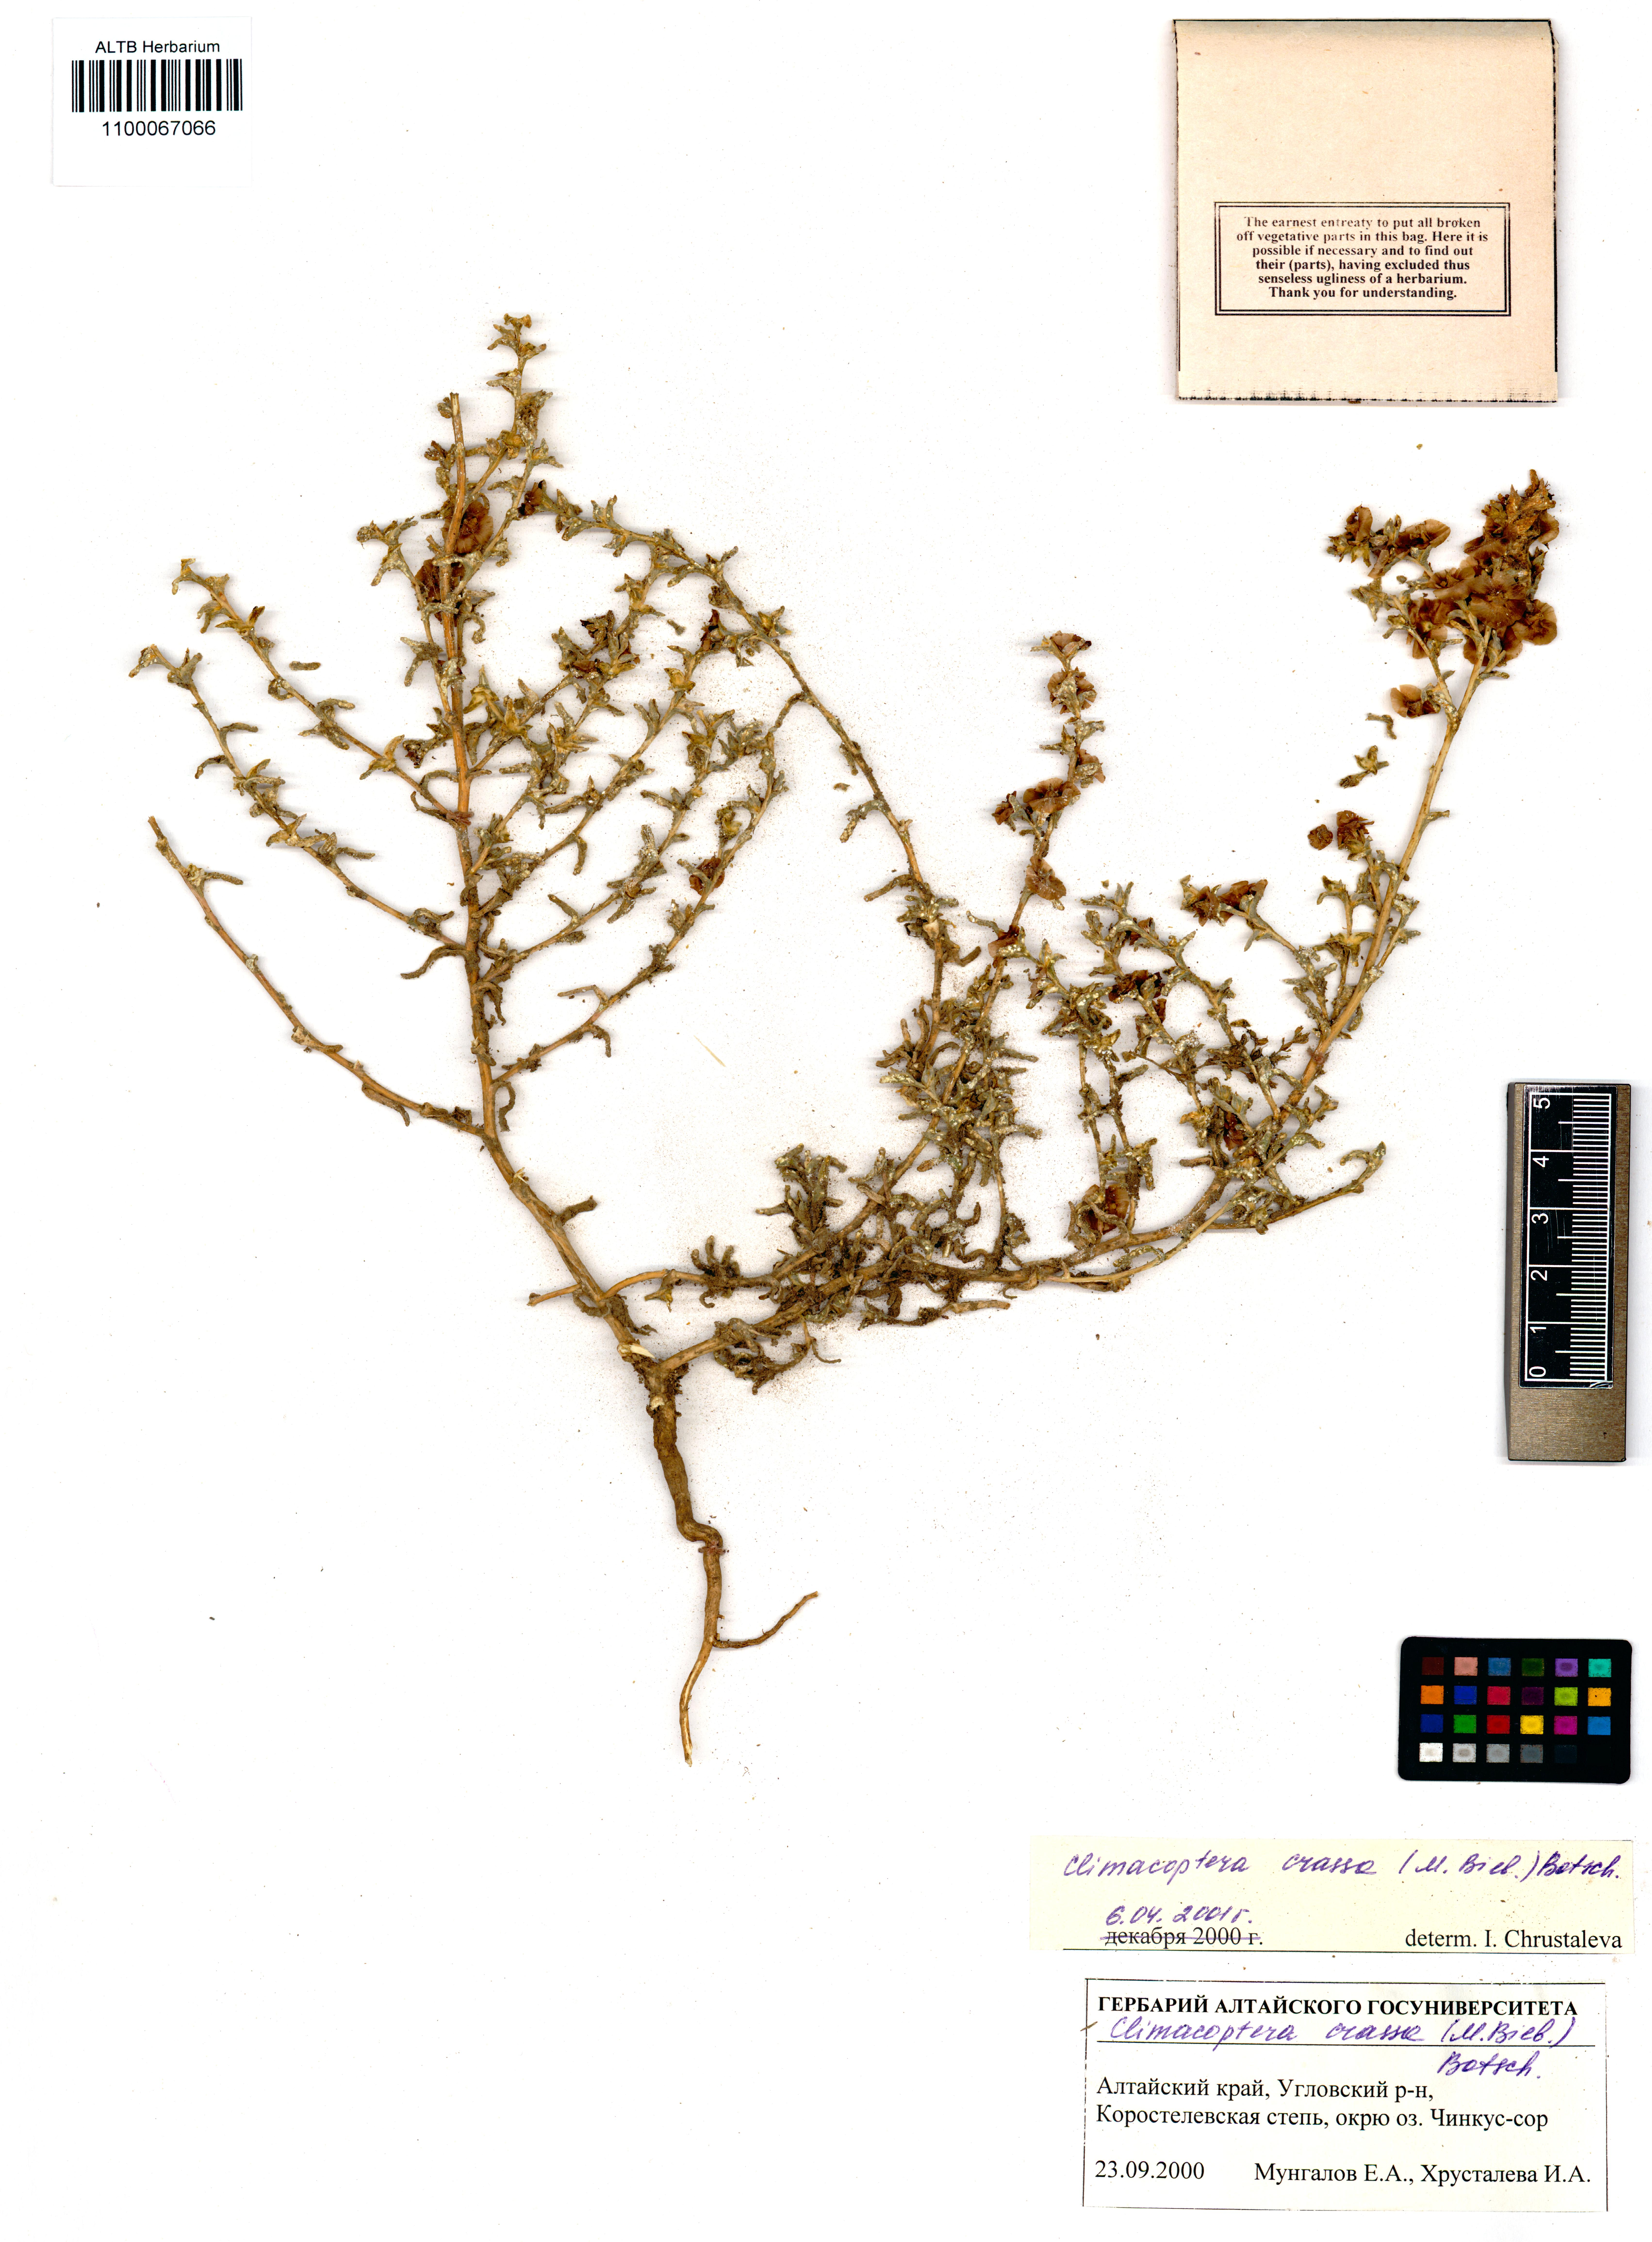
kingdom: Plantae
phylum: Tracheophyta
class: Magnoliopsida
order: Caryophyllales
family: Amaranthaceae
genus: Climacoptera
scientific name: Climacoptera crassa
